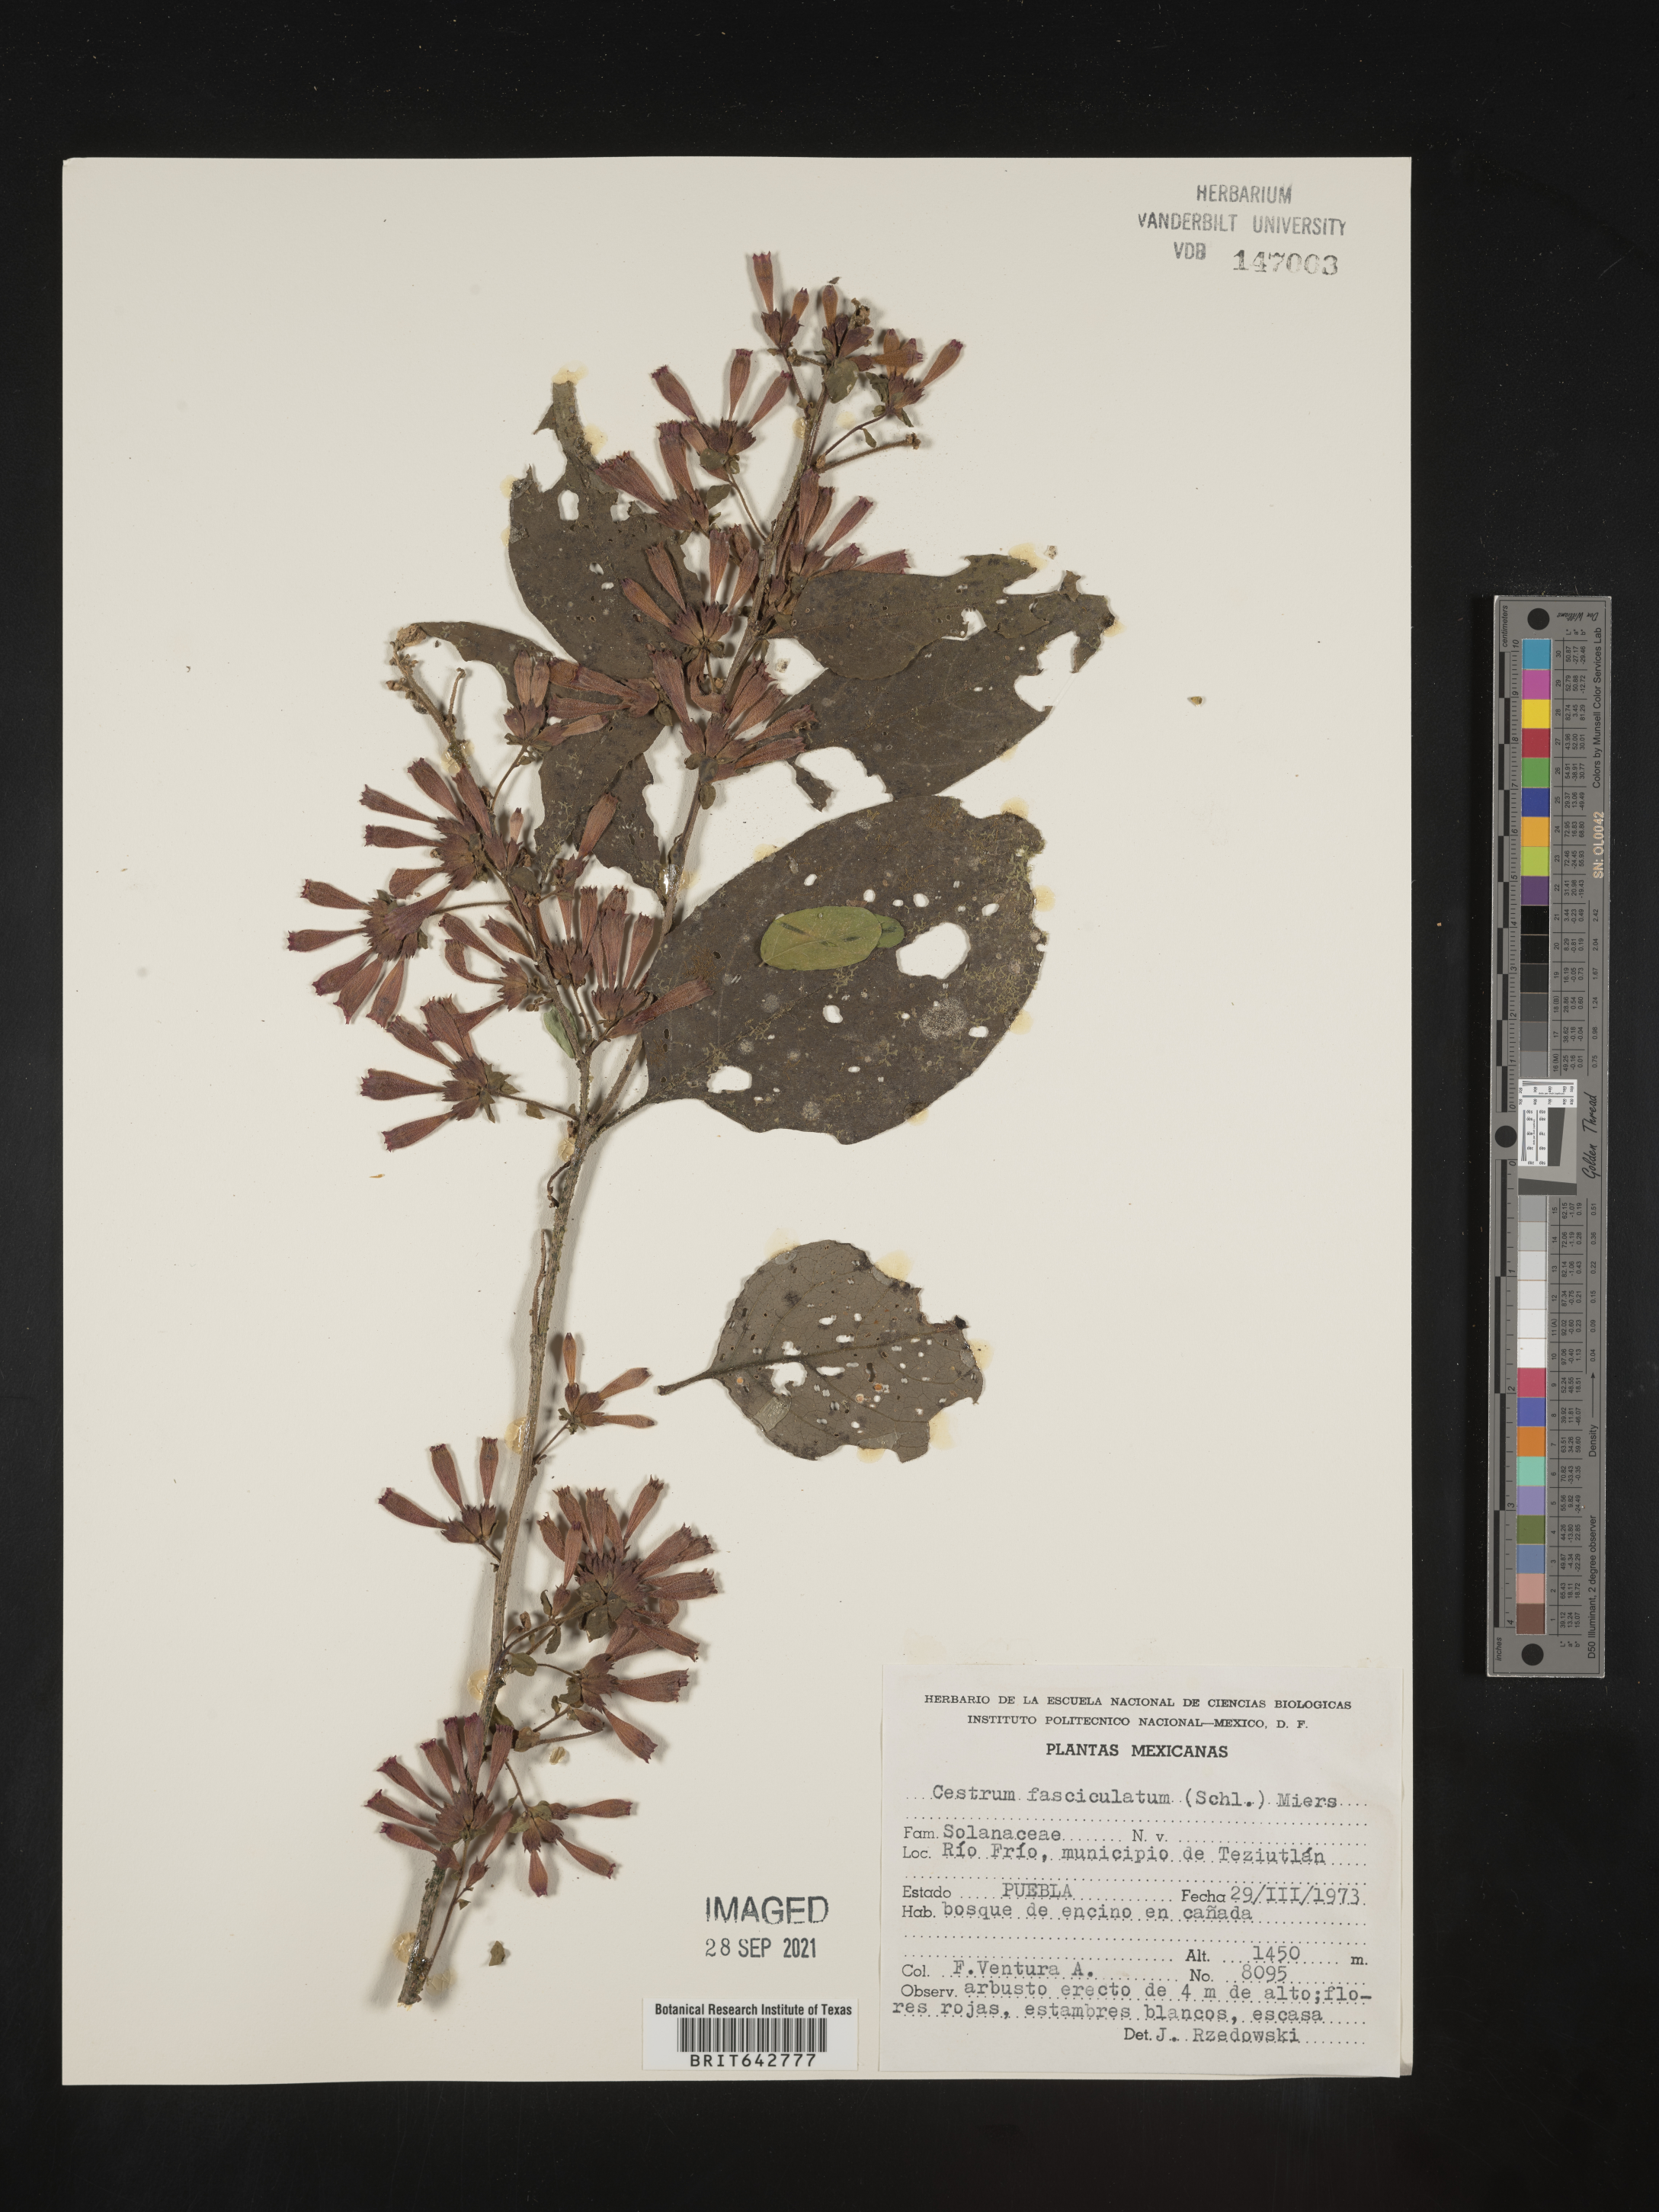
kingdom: Plantae
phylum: Tracheophyta
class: Magnoliopsida
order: Solanales
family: Solanaceae
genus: Cestrum
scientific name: Cestrum
